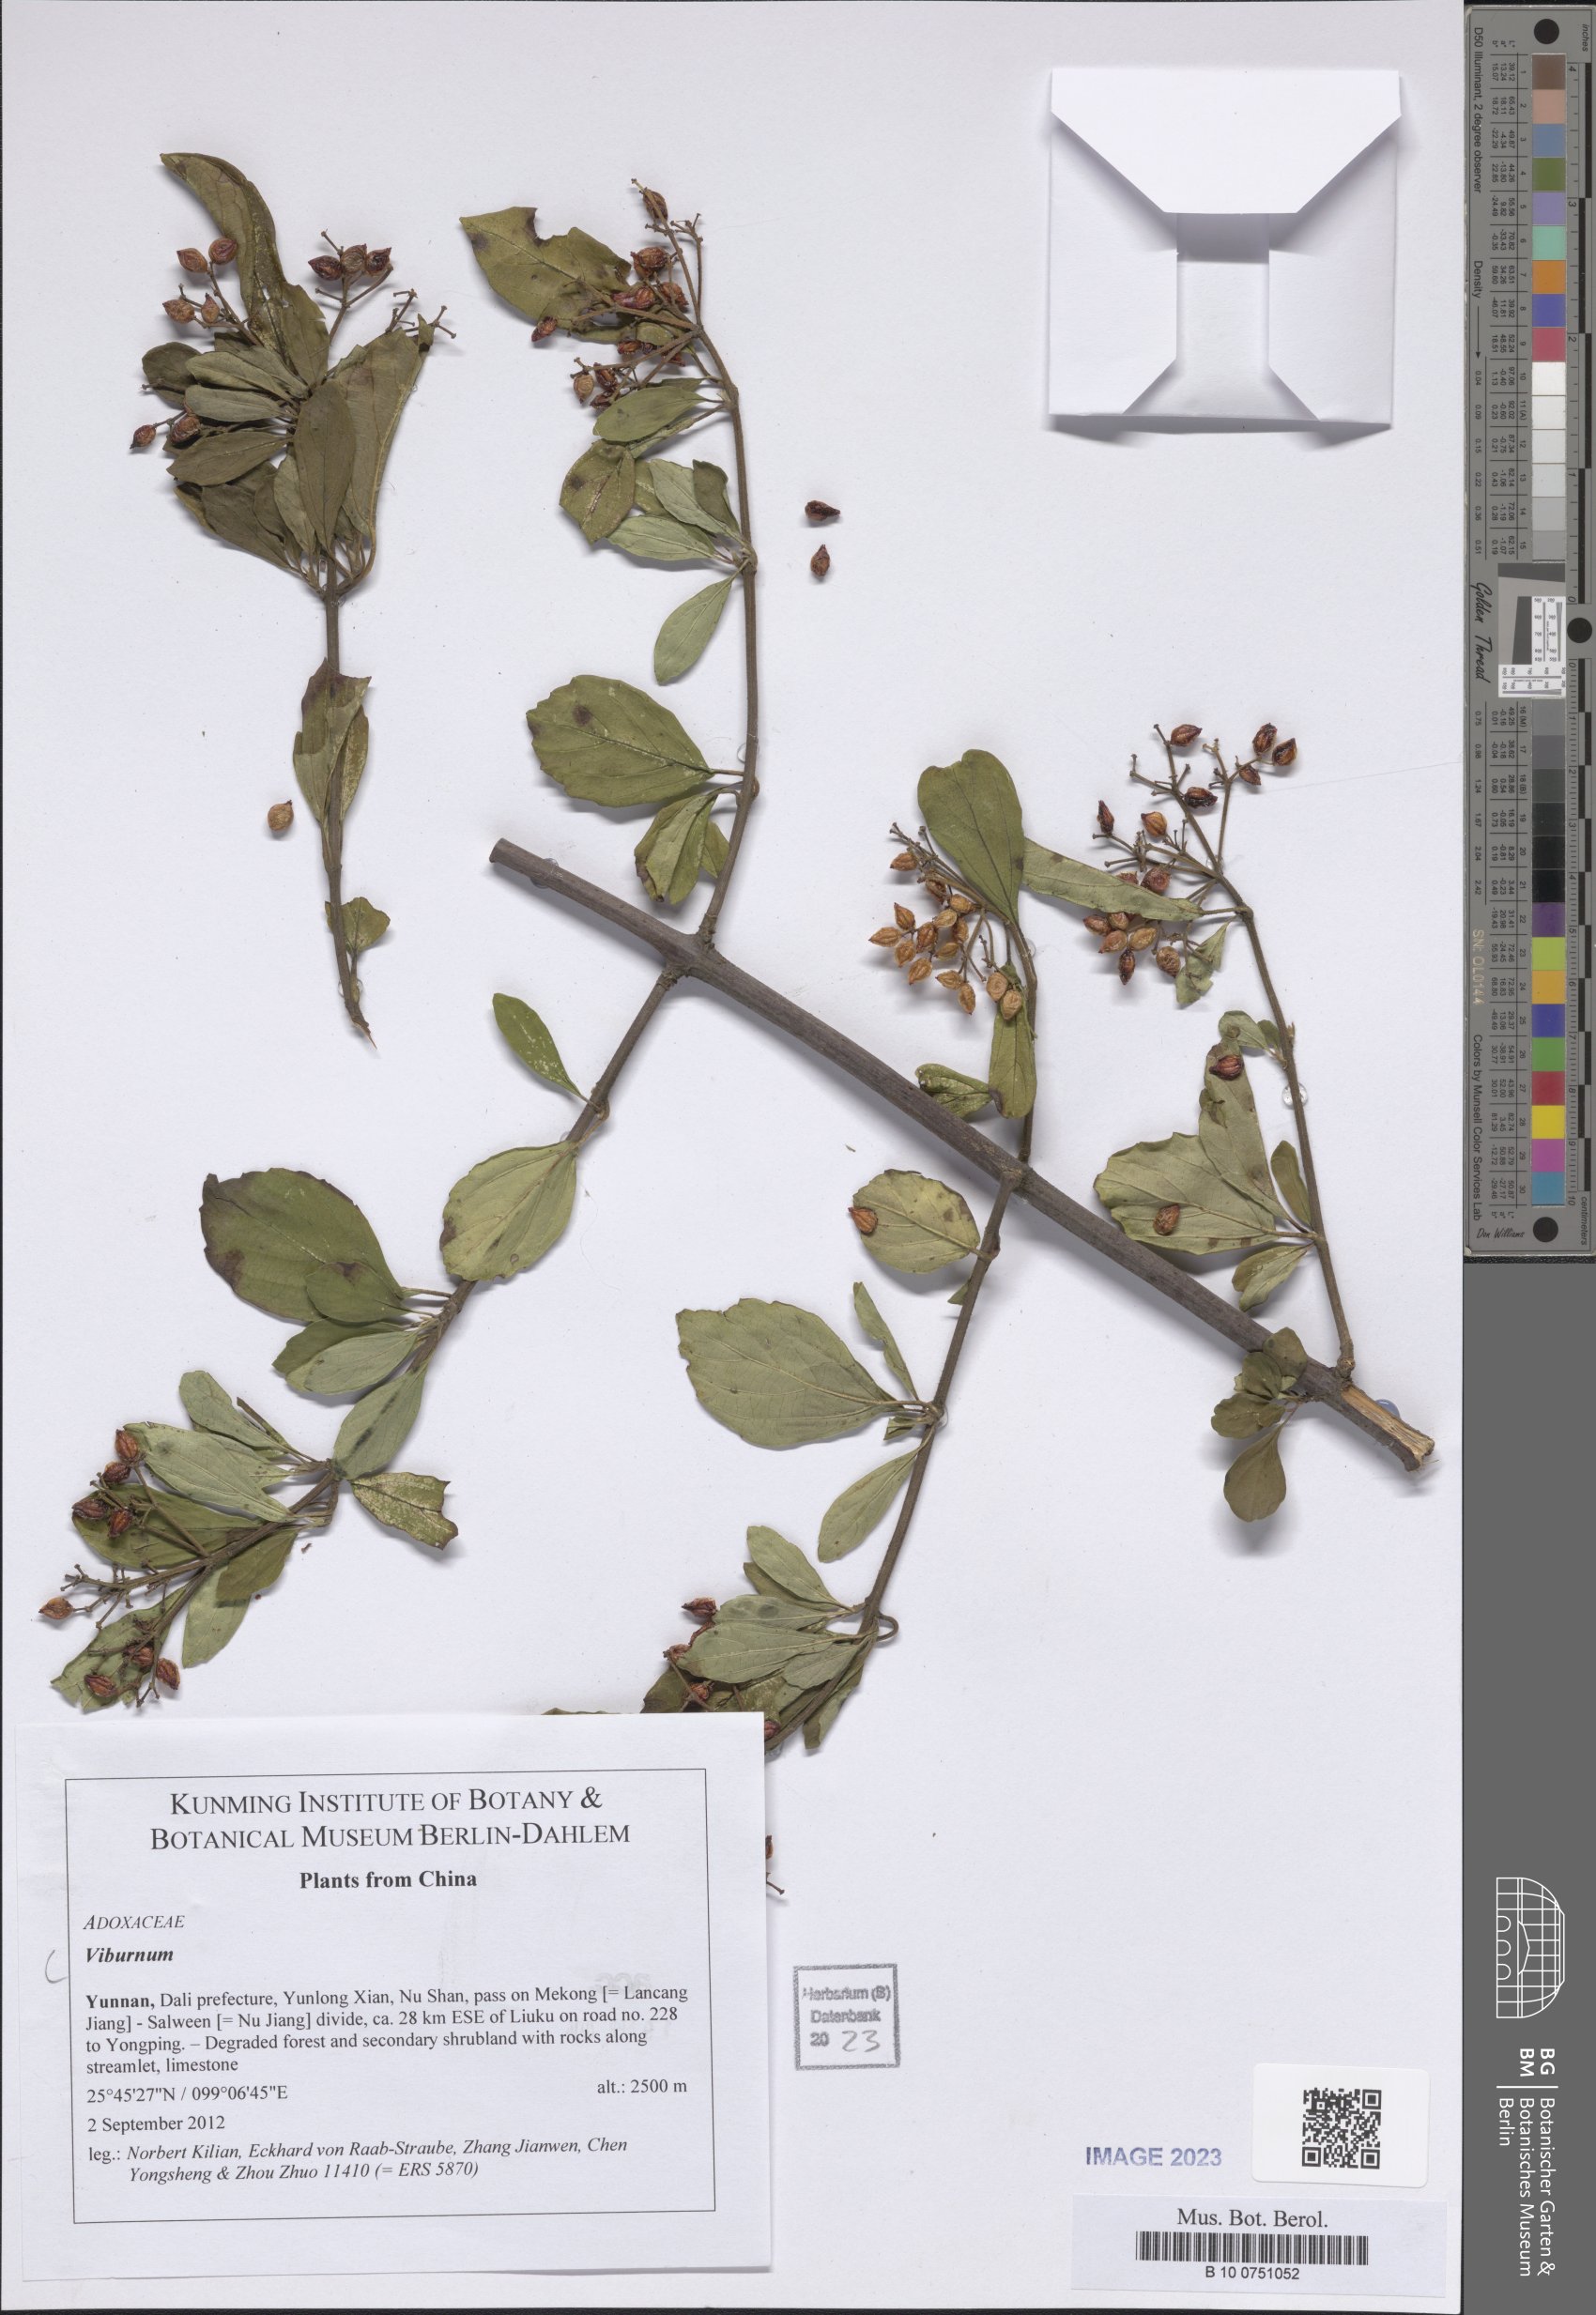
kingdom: Plantae
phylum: Tracheophyta
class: Magnoliopsida
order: Dipsacales
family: Viburnaceae
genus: Viburnum
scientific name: Viburnum
